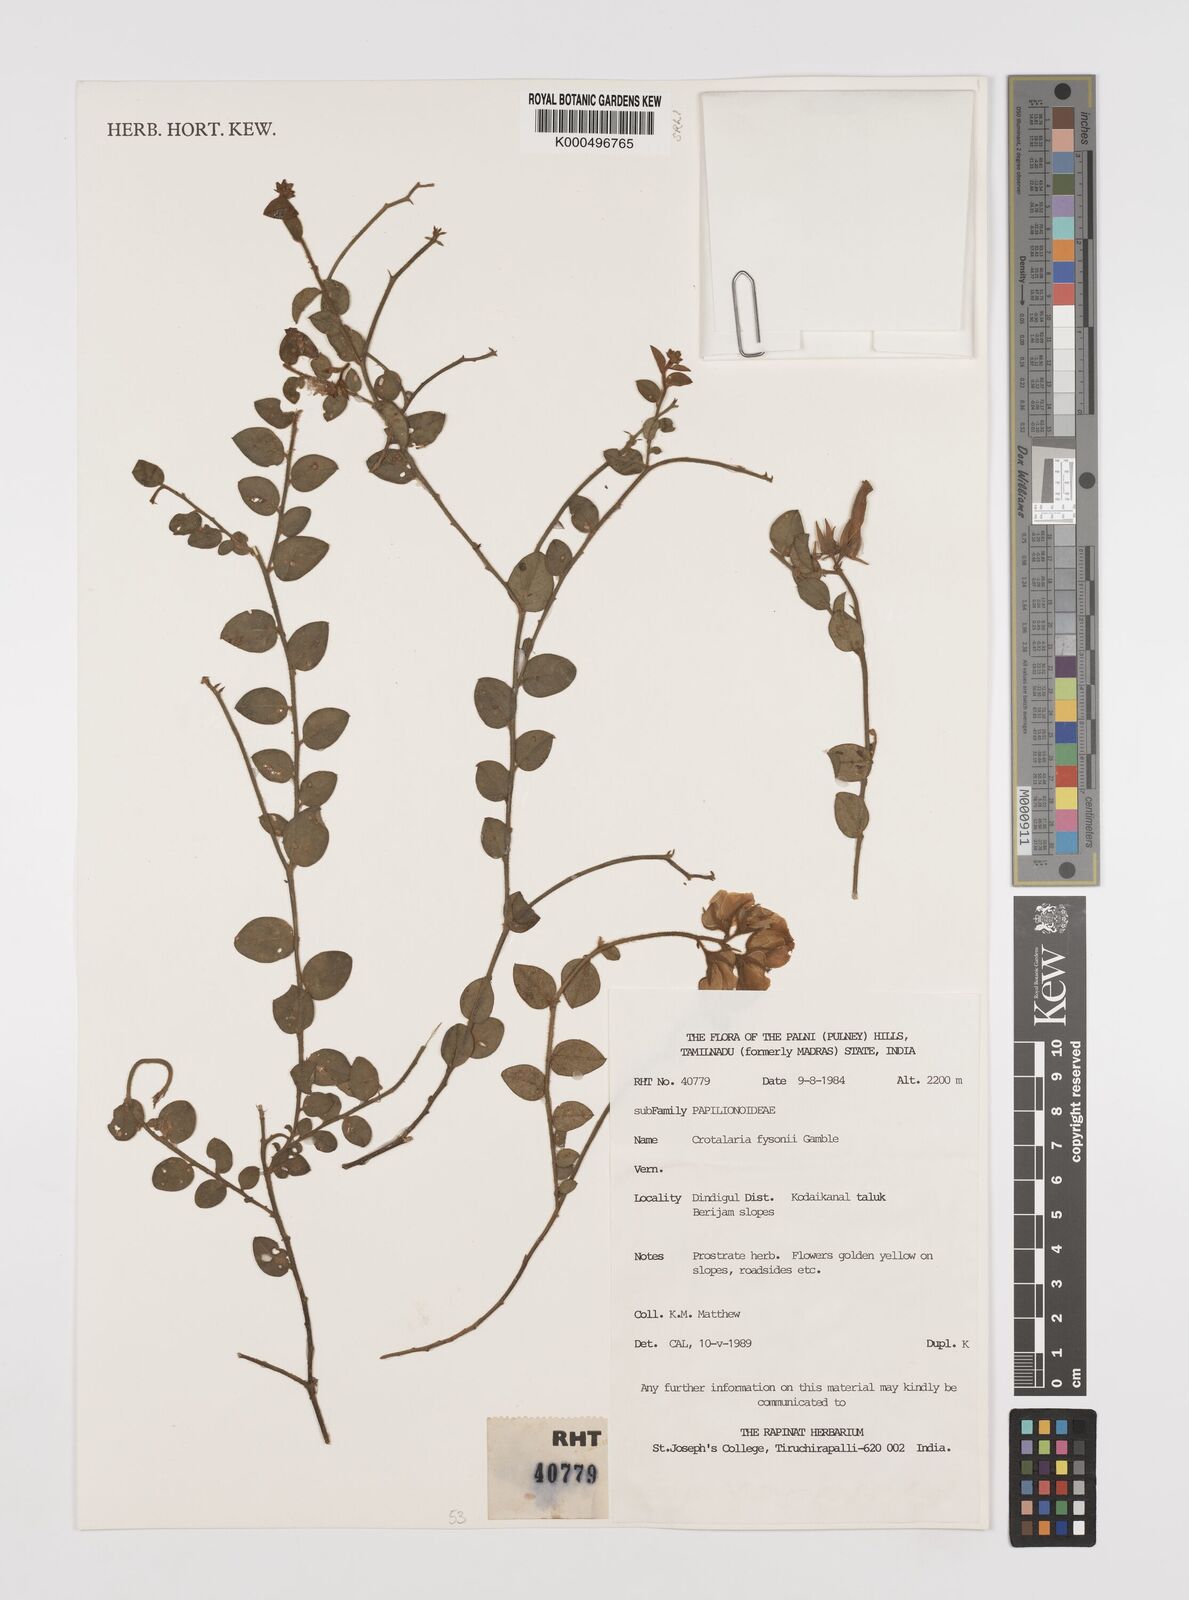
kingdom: Plantae
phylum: Tracheophyta
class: Magnoliopsida
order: Fabales
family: Fabaceae
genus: Crotalaria
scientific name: Crotalaria fysonii
